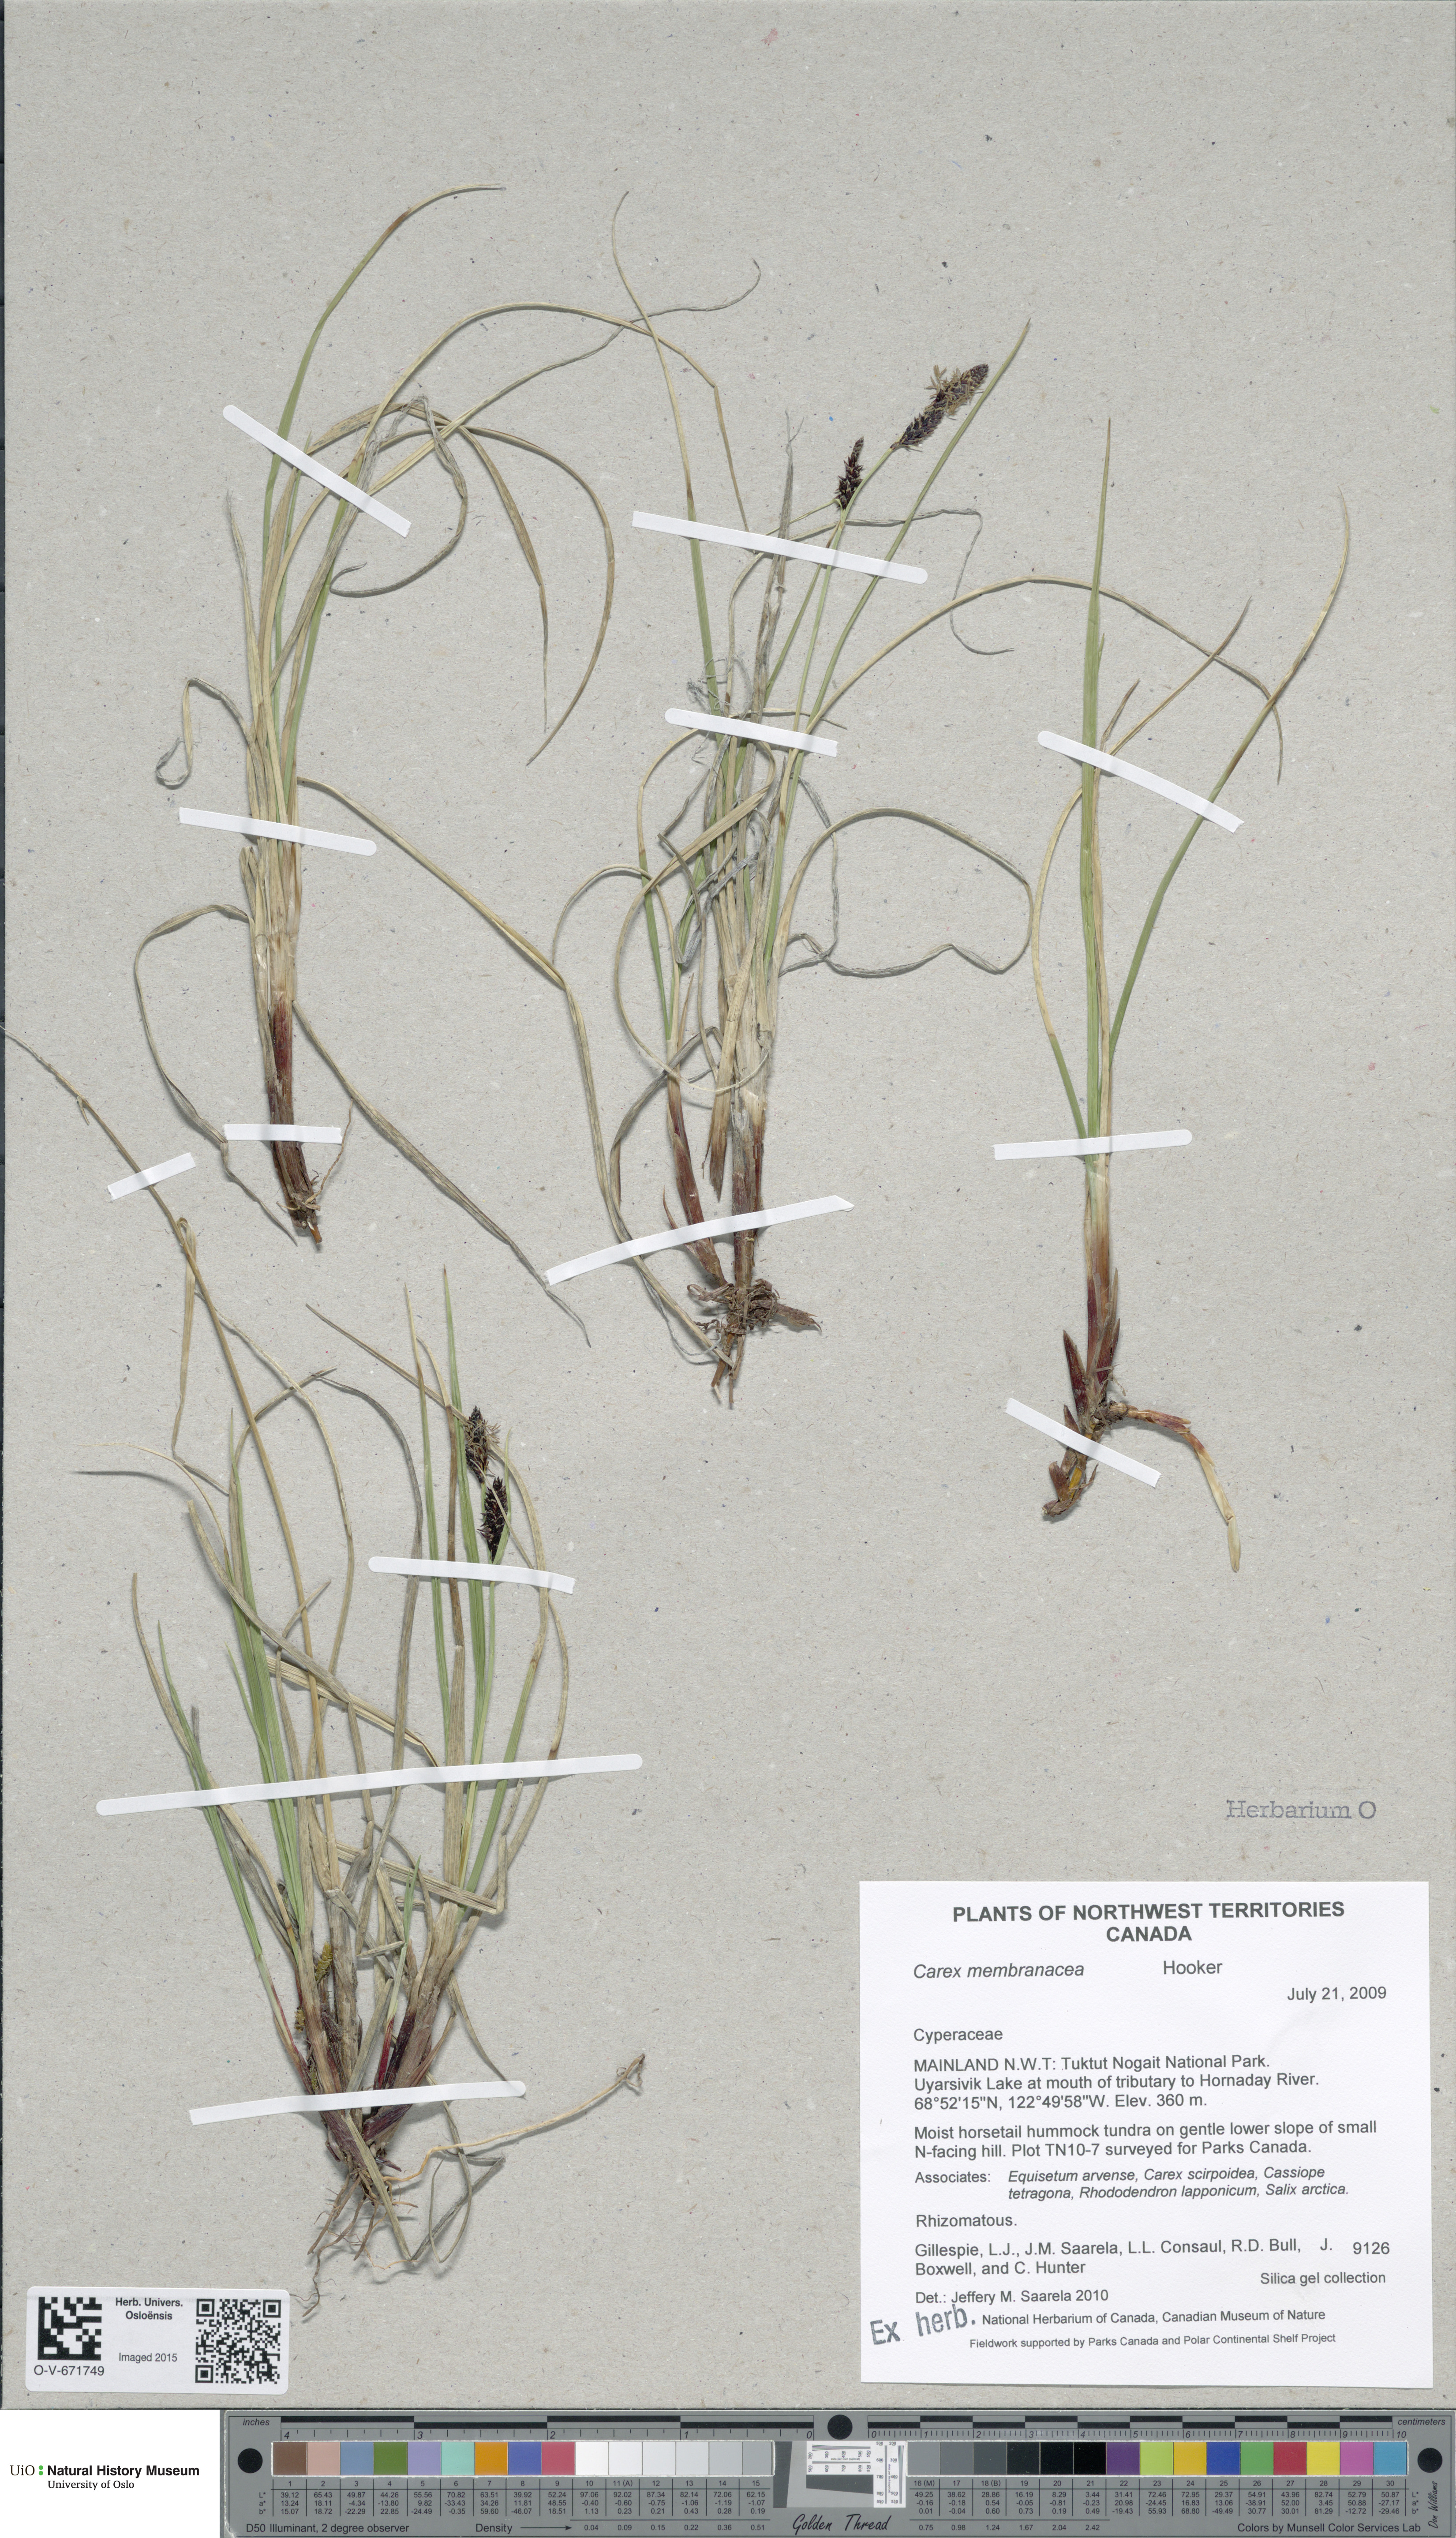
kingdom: Plantae
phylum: Tracheophyta
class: Liliopsida
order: Poales
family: Cyperaceae
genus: Carex
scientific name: Carex membranacea
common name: Fragile sedge
